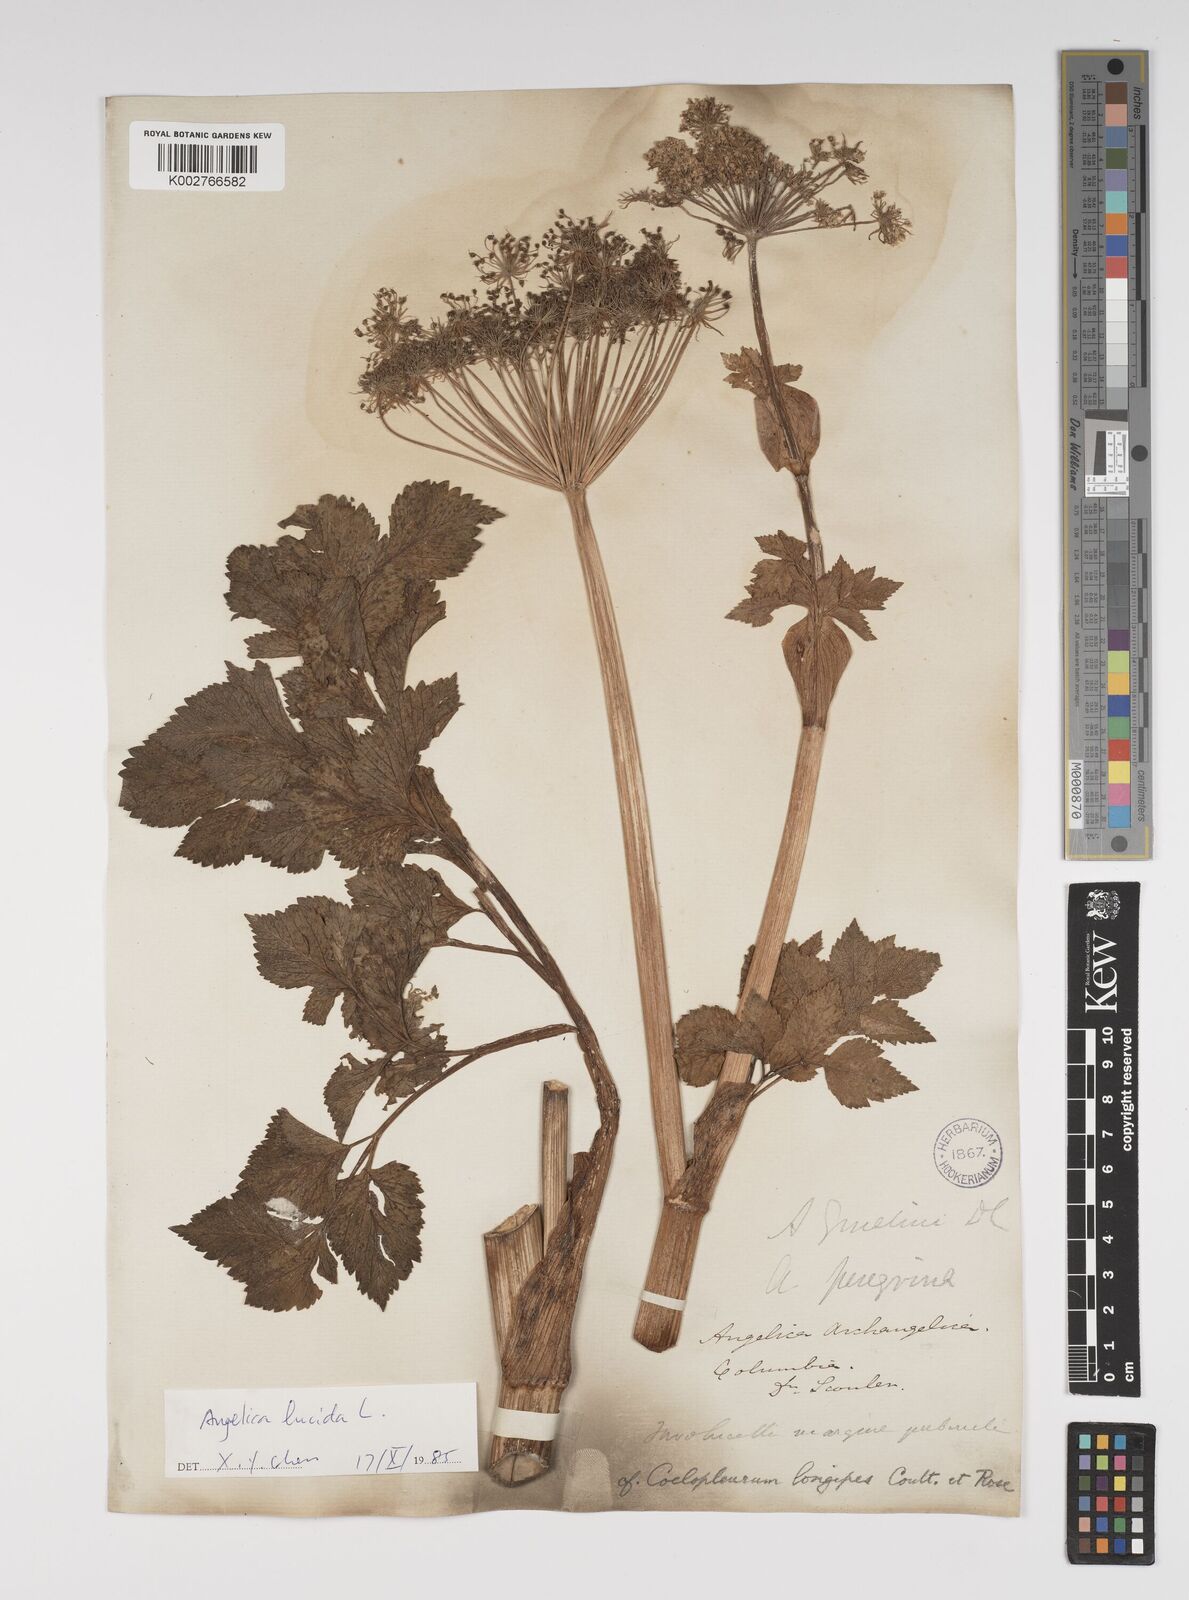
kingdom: Plantae
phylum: Tracheophyta
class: Magnoliopsida
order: Apiales
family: Apiaceae
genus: Angelica
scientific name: Angelica lucida
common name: Seabeach angelica
